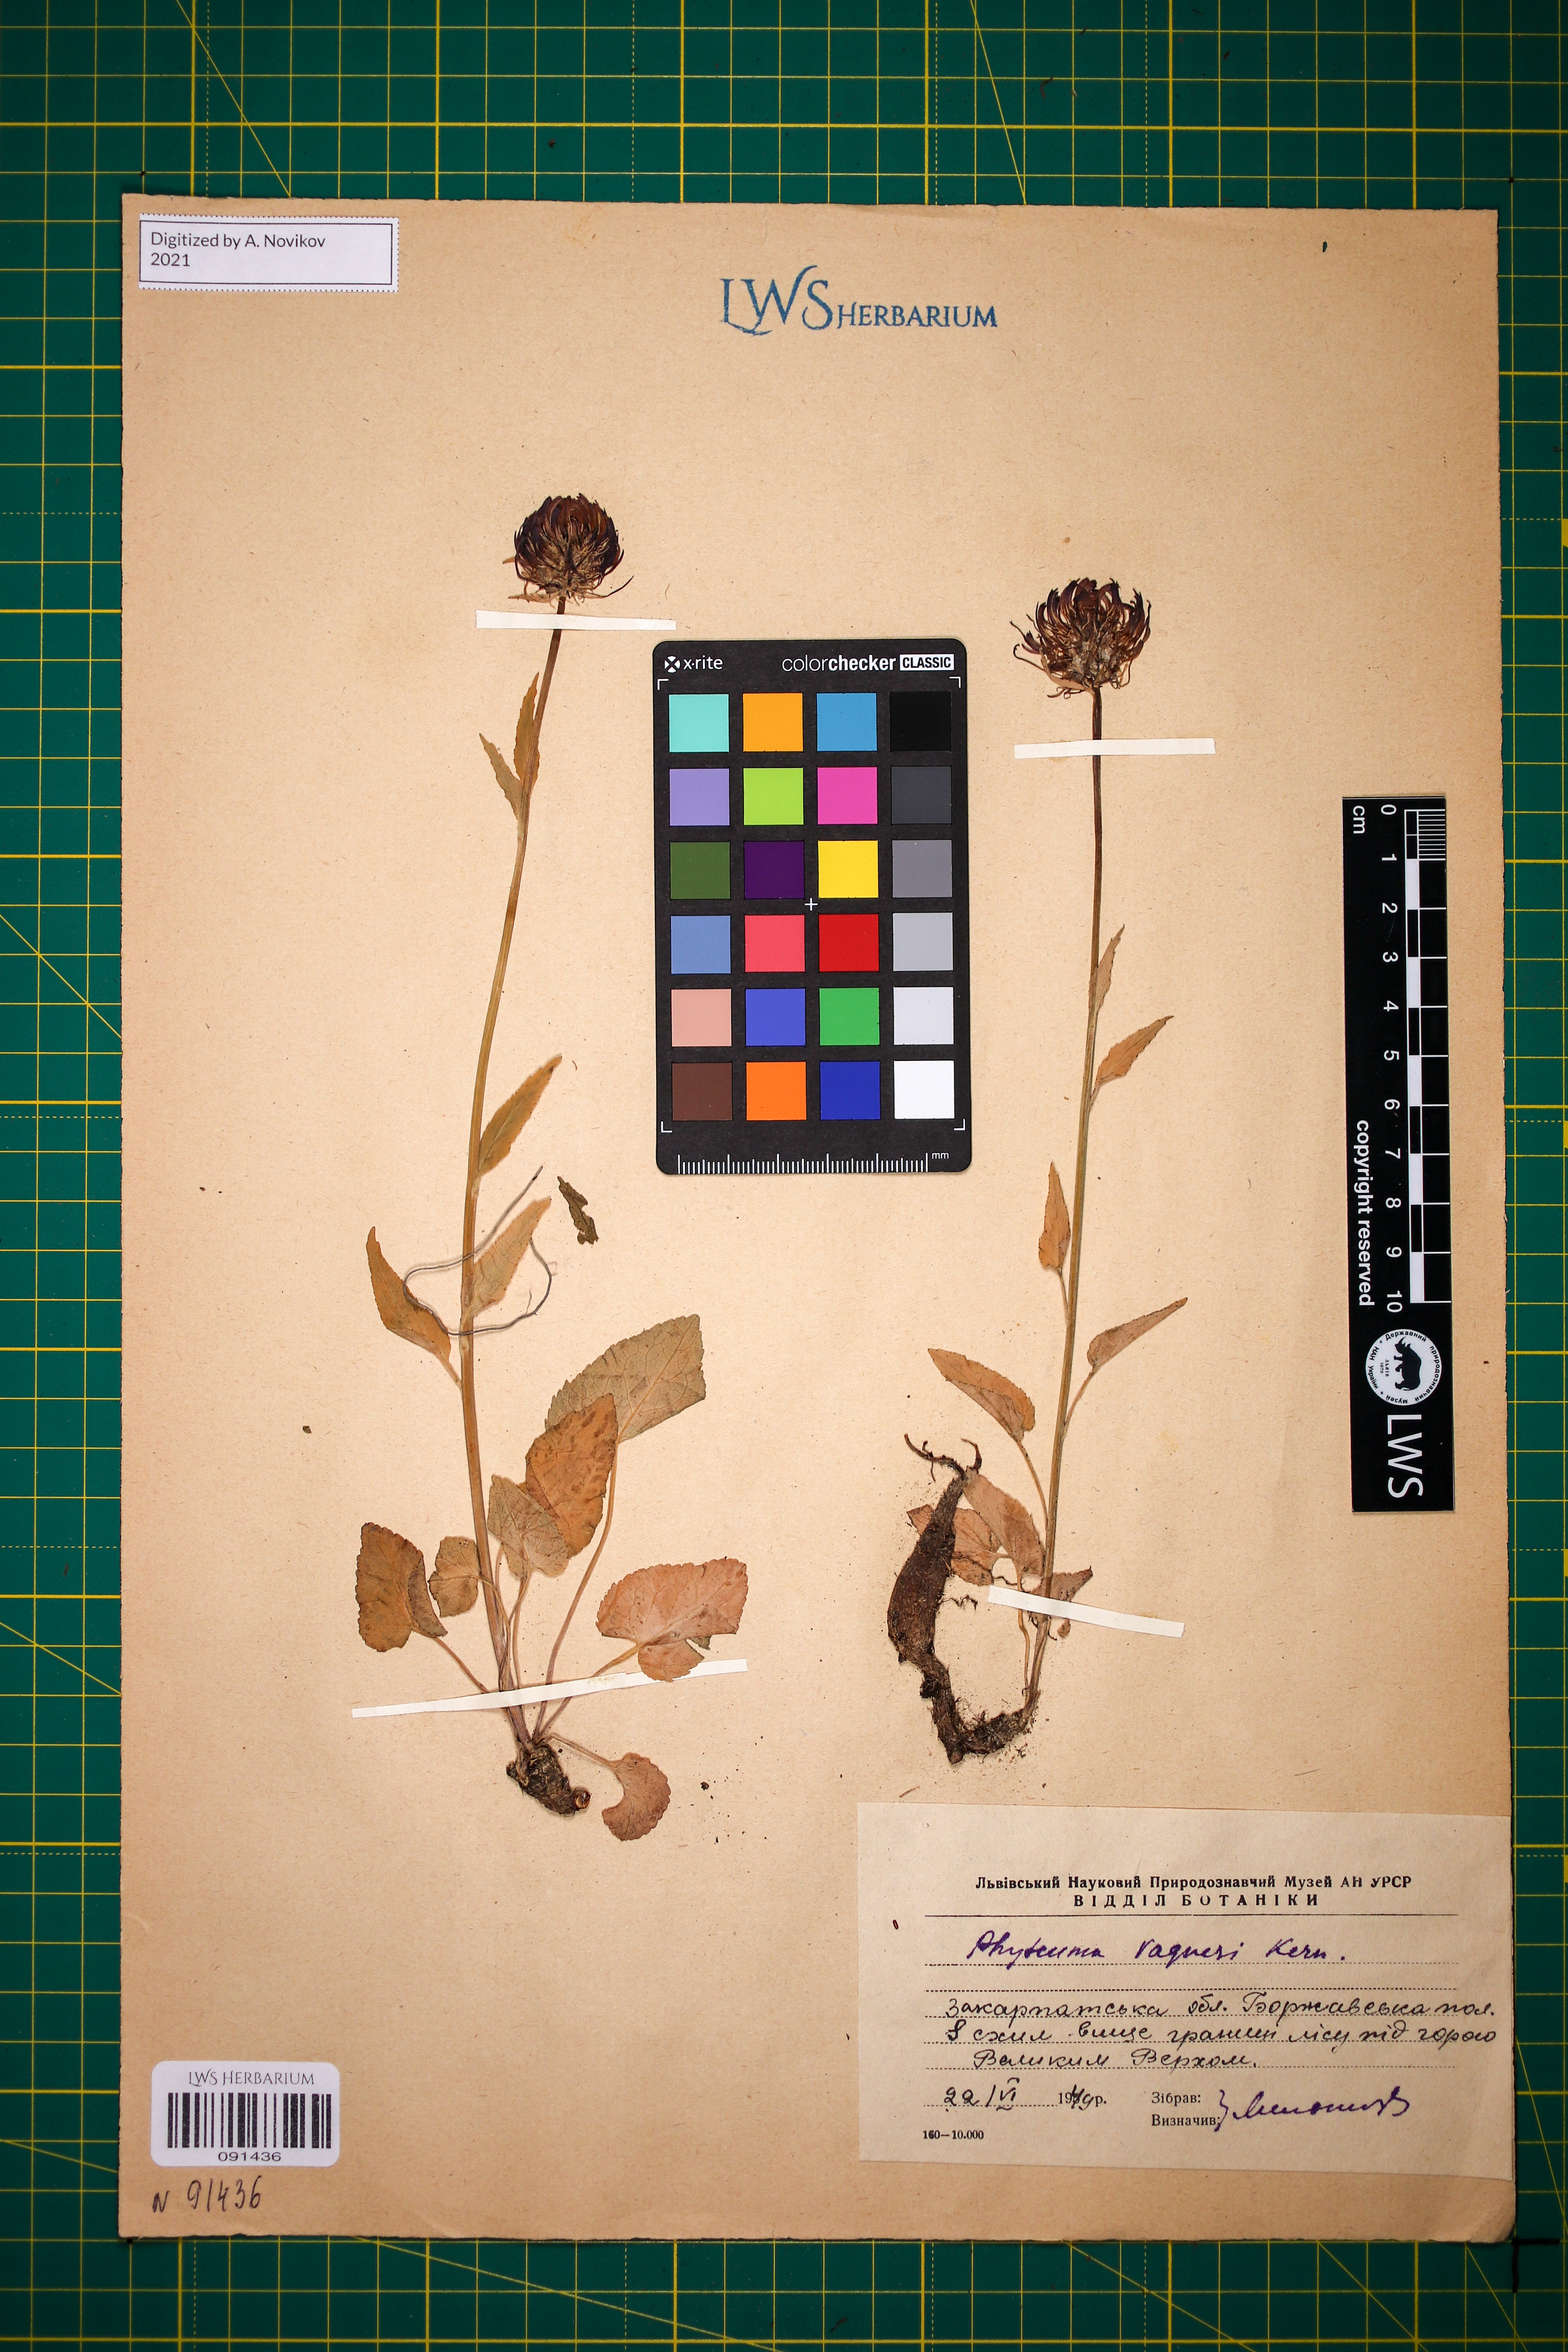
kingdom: Plantae
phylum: Tracheophyta
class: Magnoliopsida
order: Asterales
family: Campanulaceae
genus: Phyteuma
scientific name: Phyteuma vagneri
